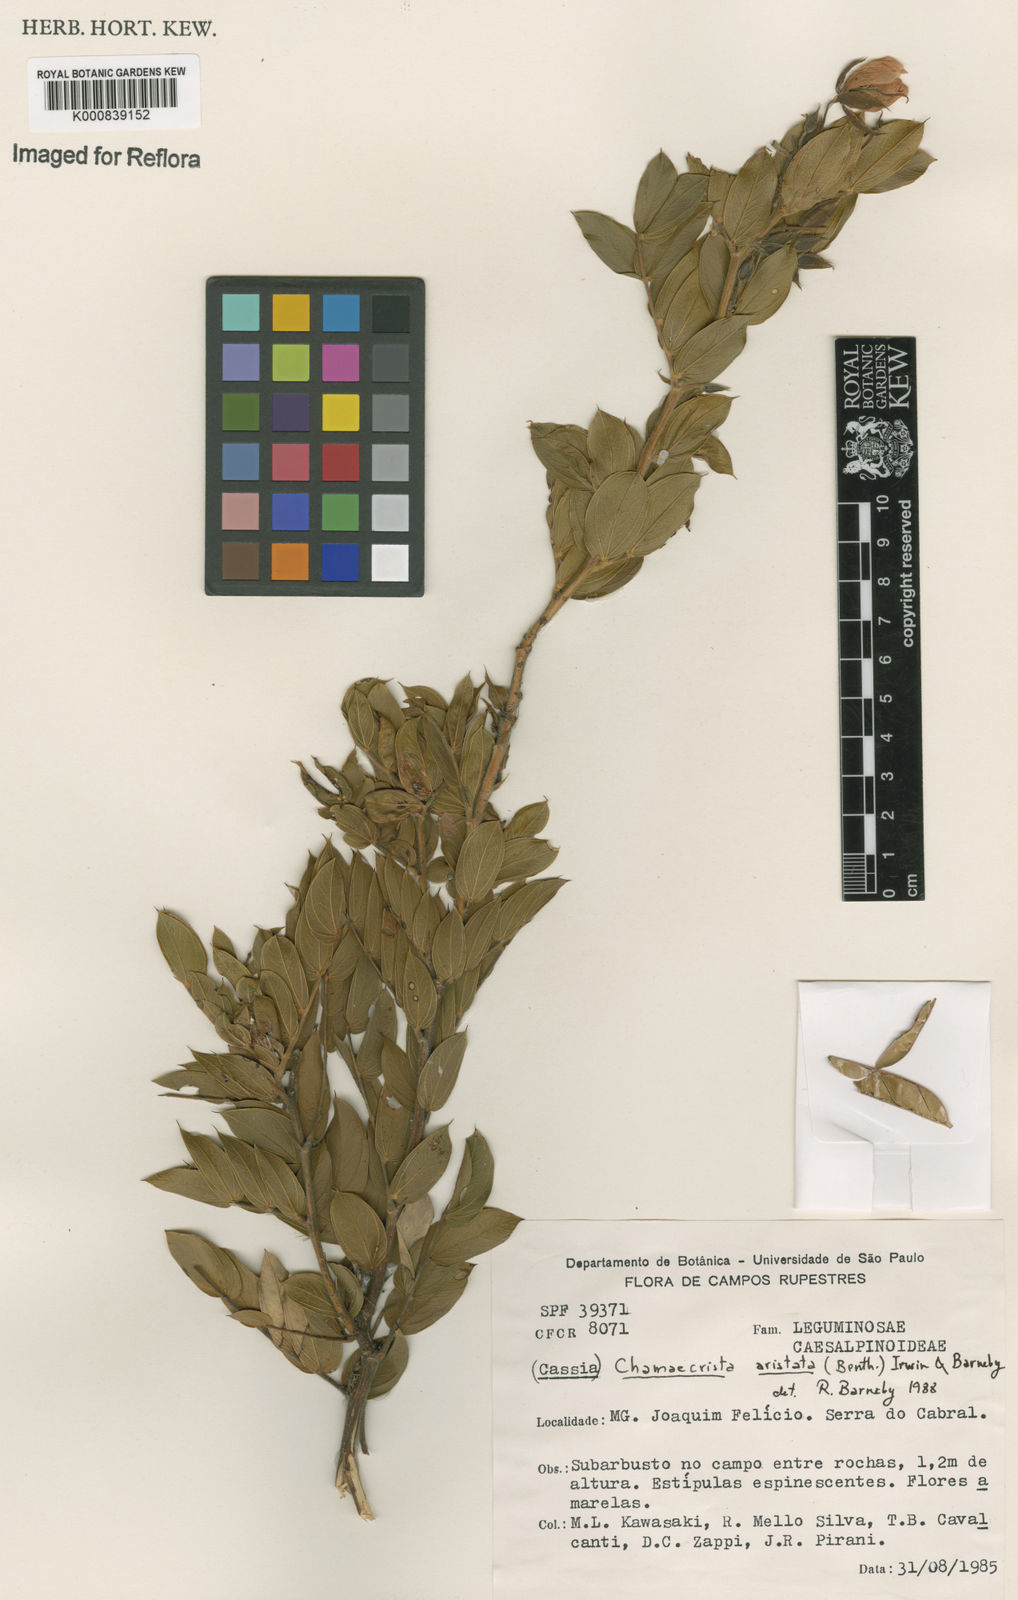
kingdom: Plantae
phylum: Tracheophyta
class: Magnoliopsida
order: Fabales
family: Fabaceae
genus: Chamaecrista
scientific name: Chamaecrista aristata
